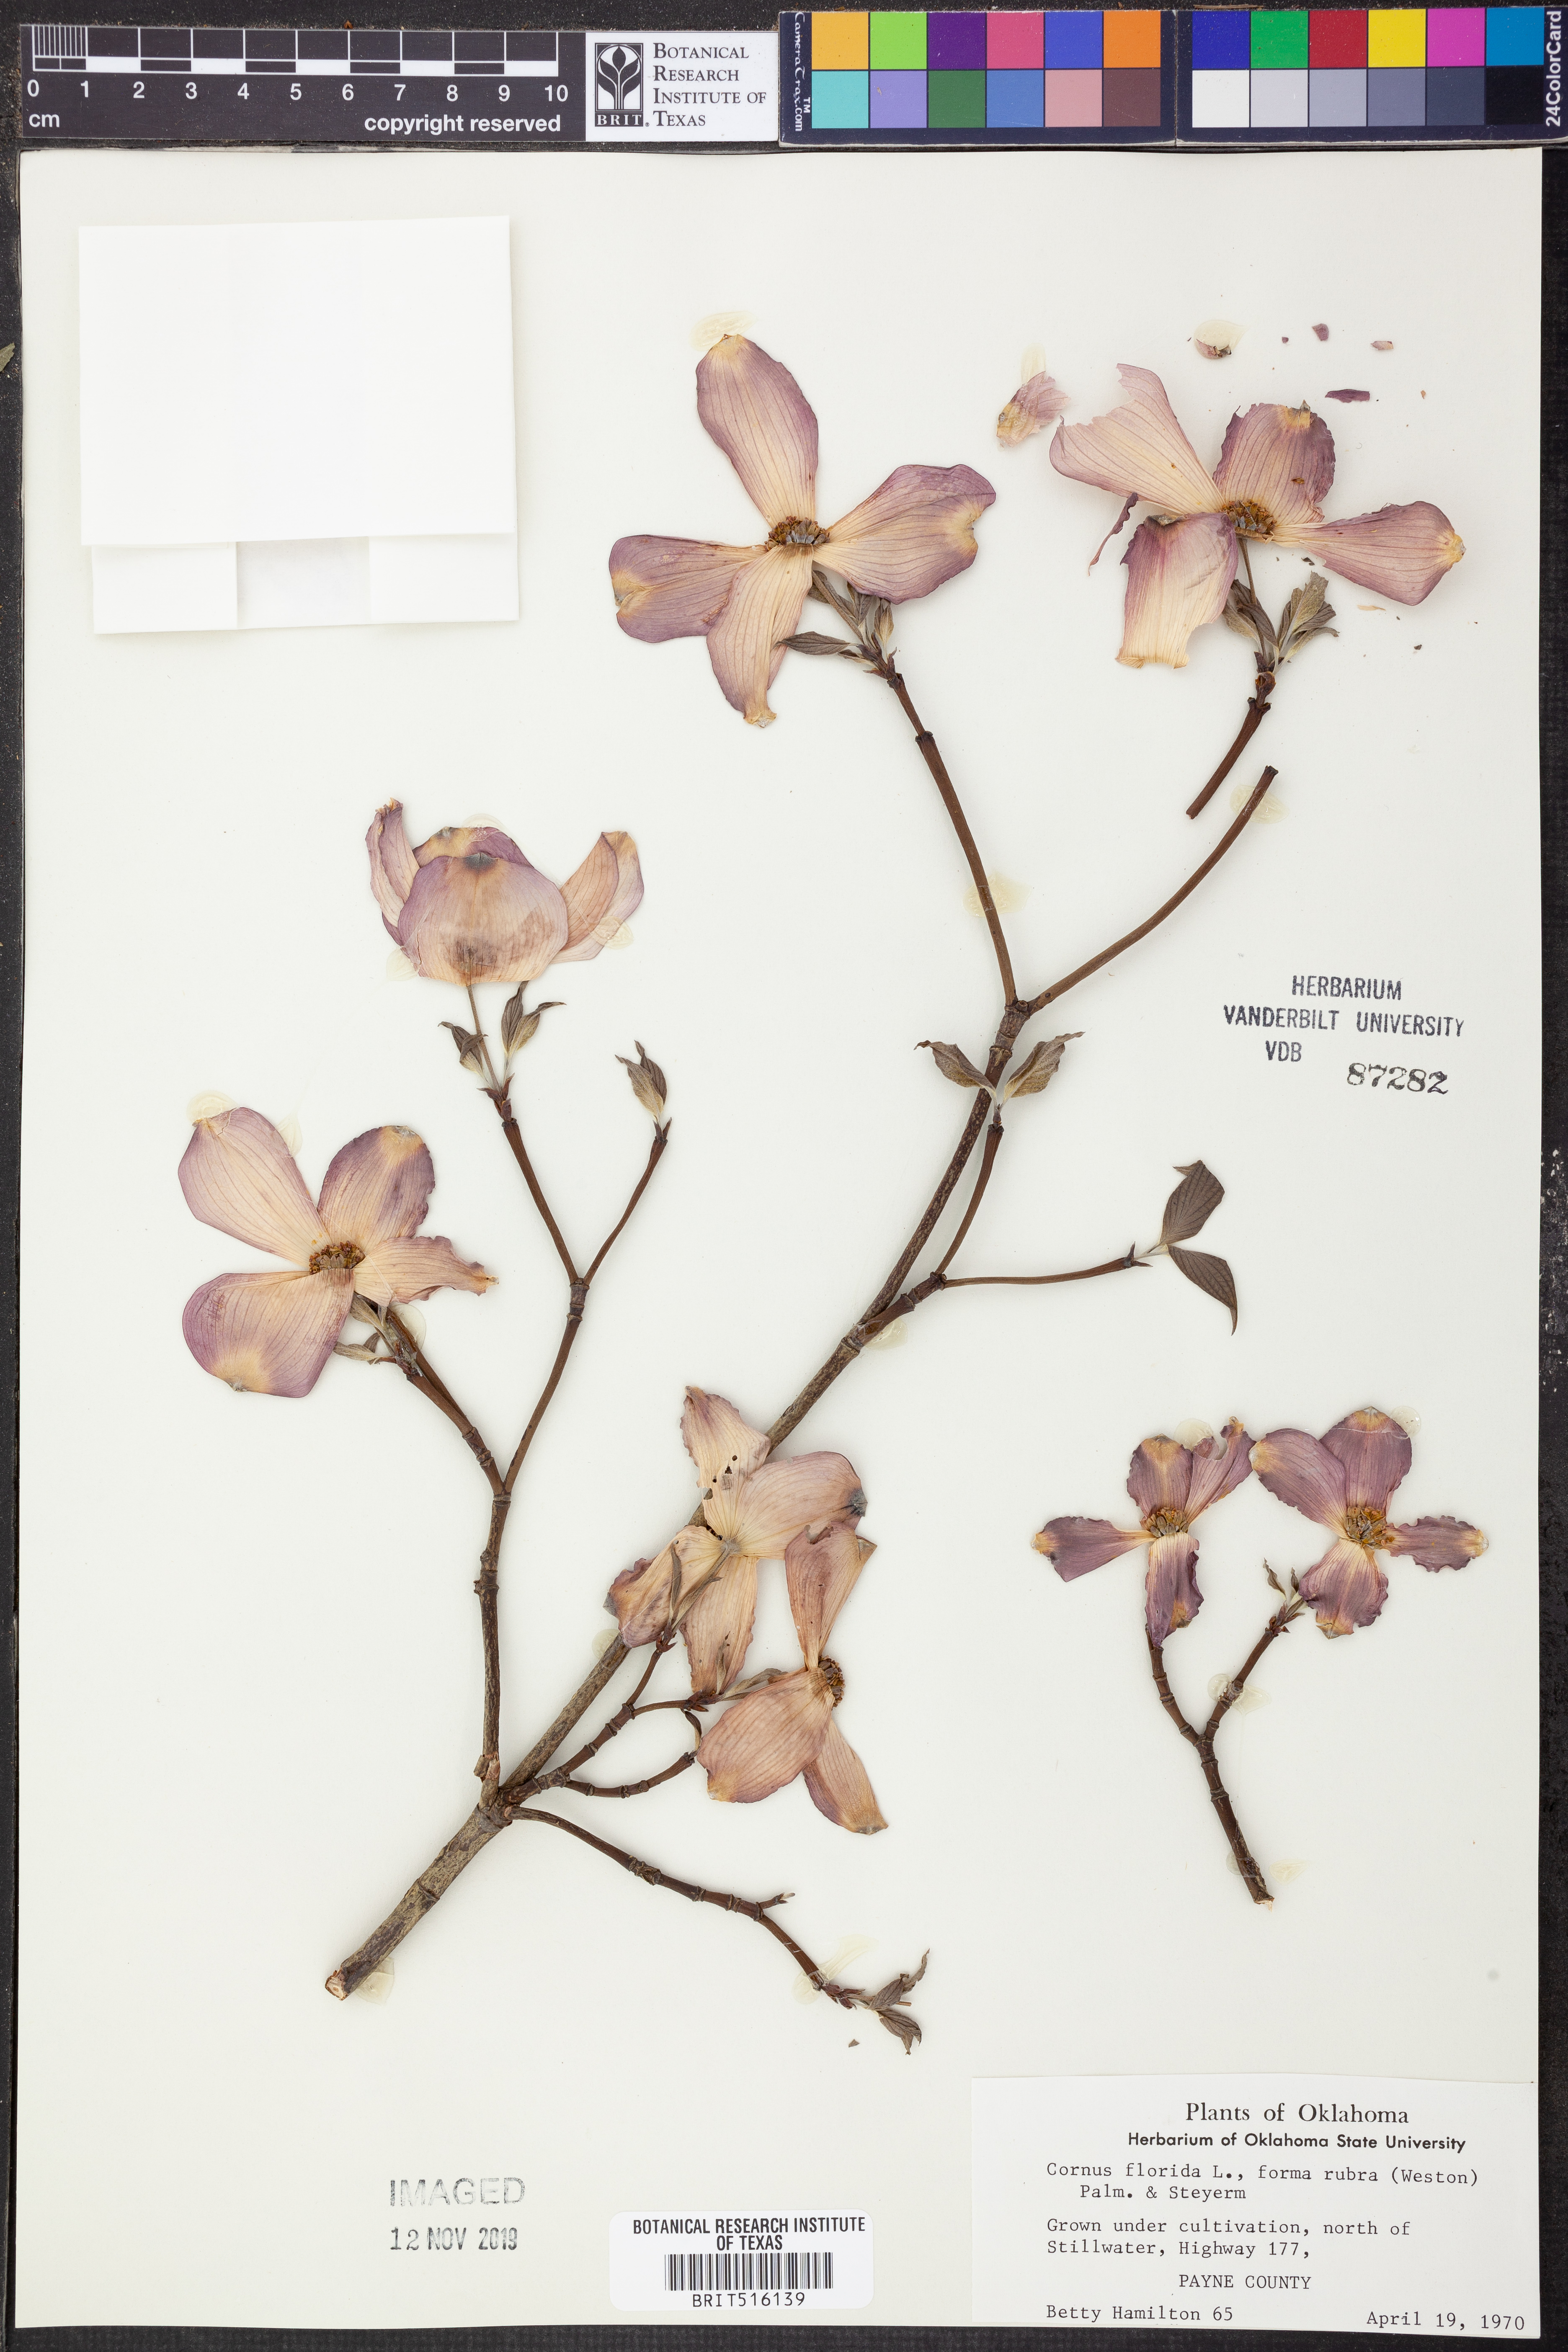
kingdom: Plantae
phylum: Tracheophyta
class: Magnoliopsida
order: Cornales
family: Cornaceae
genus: Cornus
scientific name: Cornus florida
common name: Flowering dogwood
